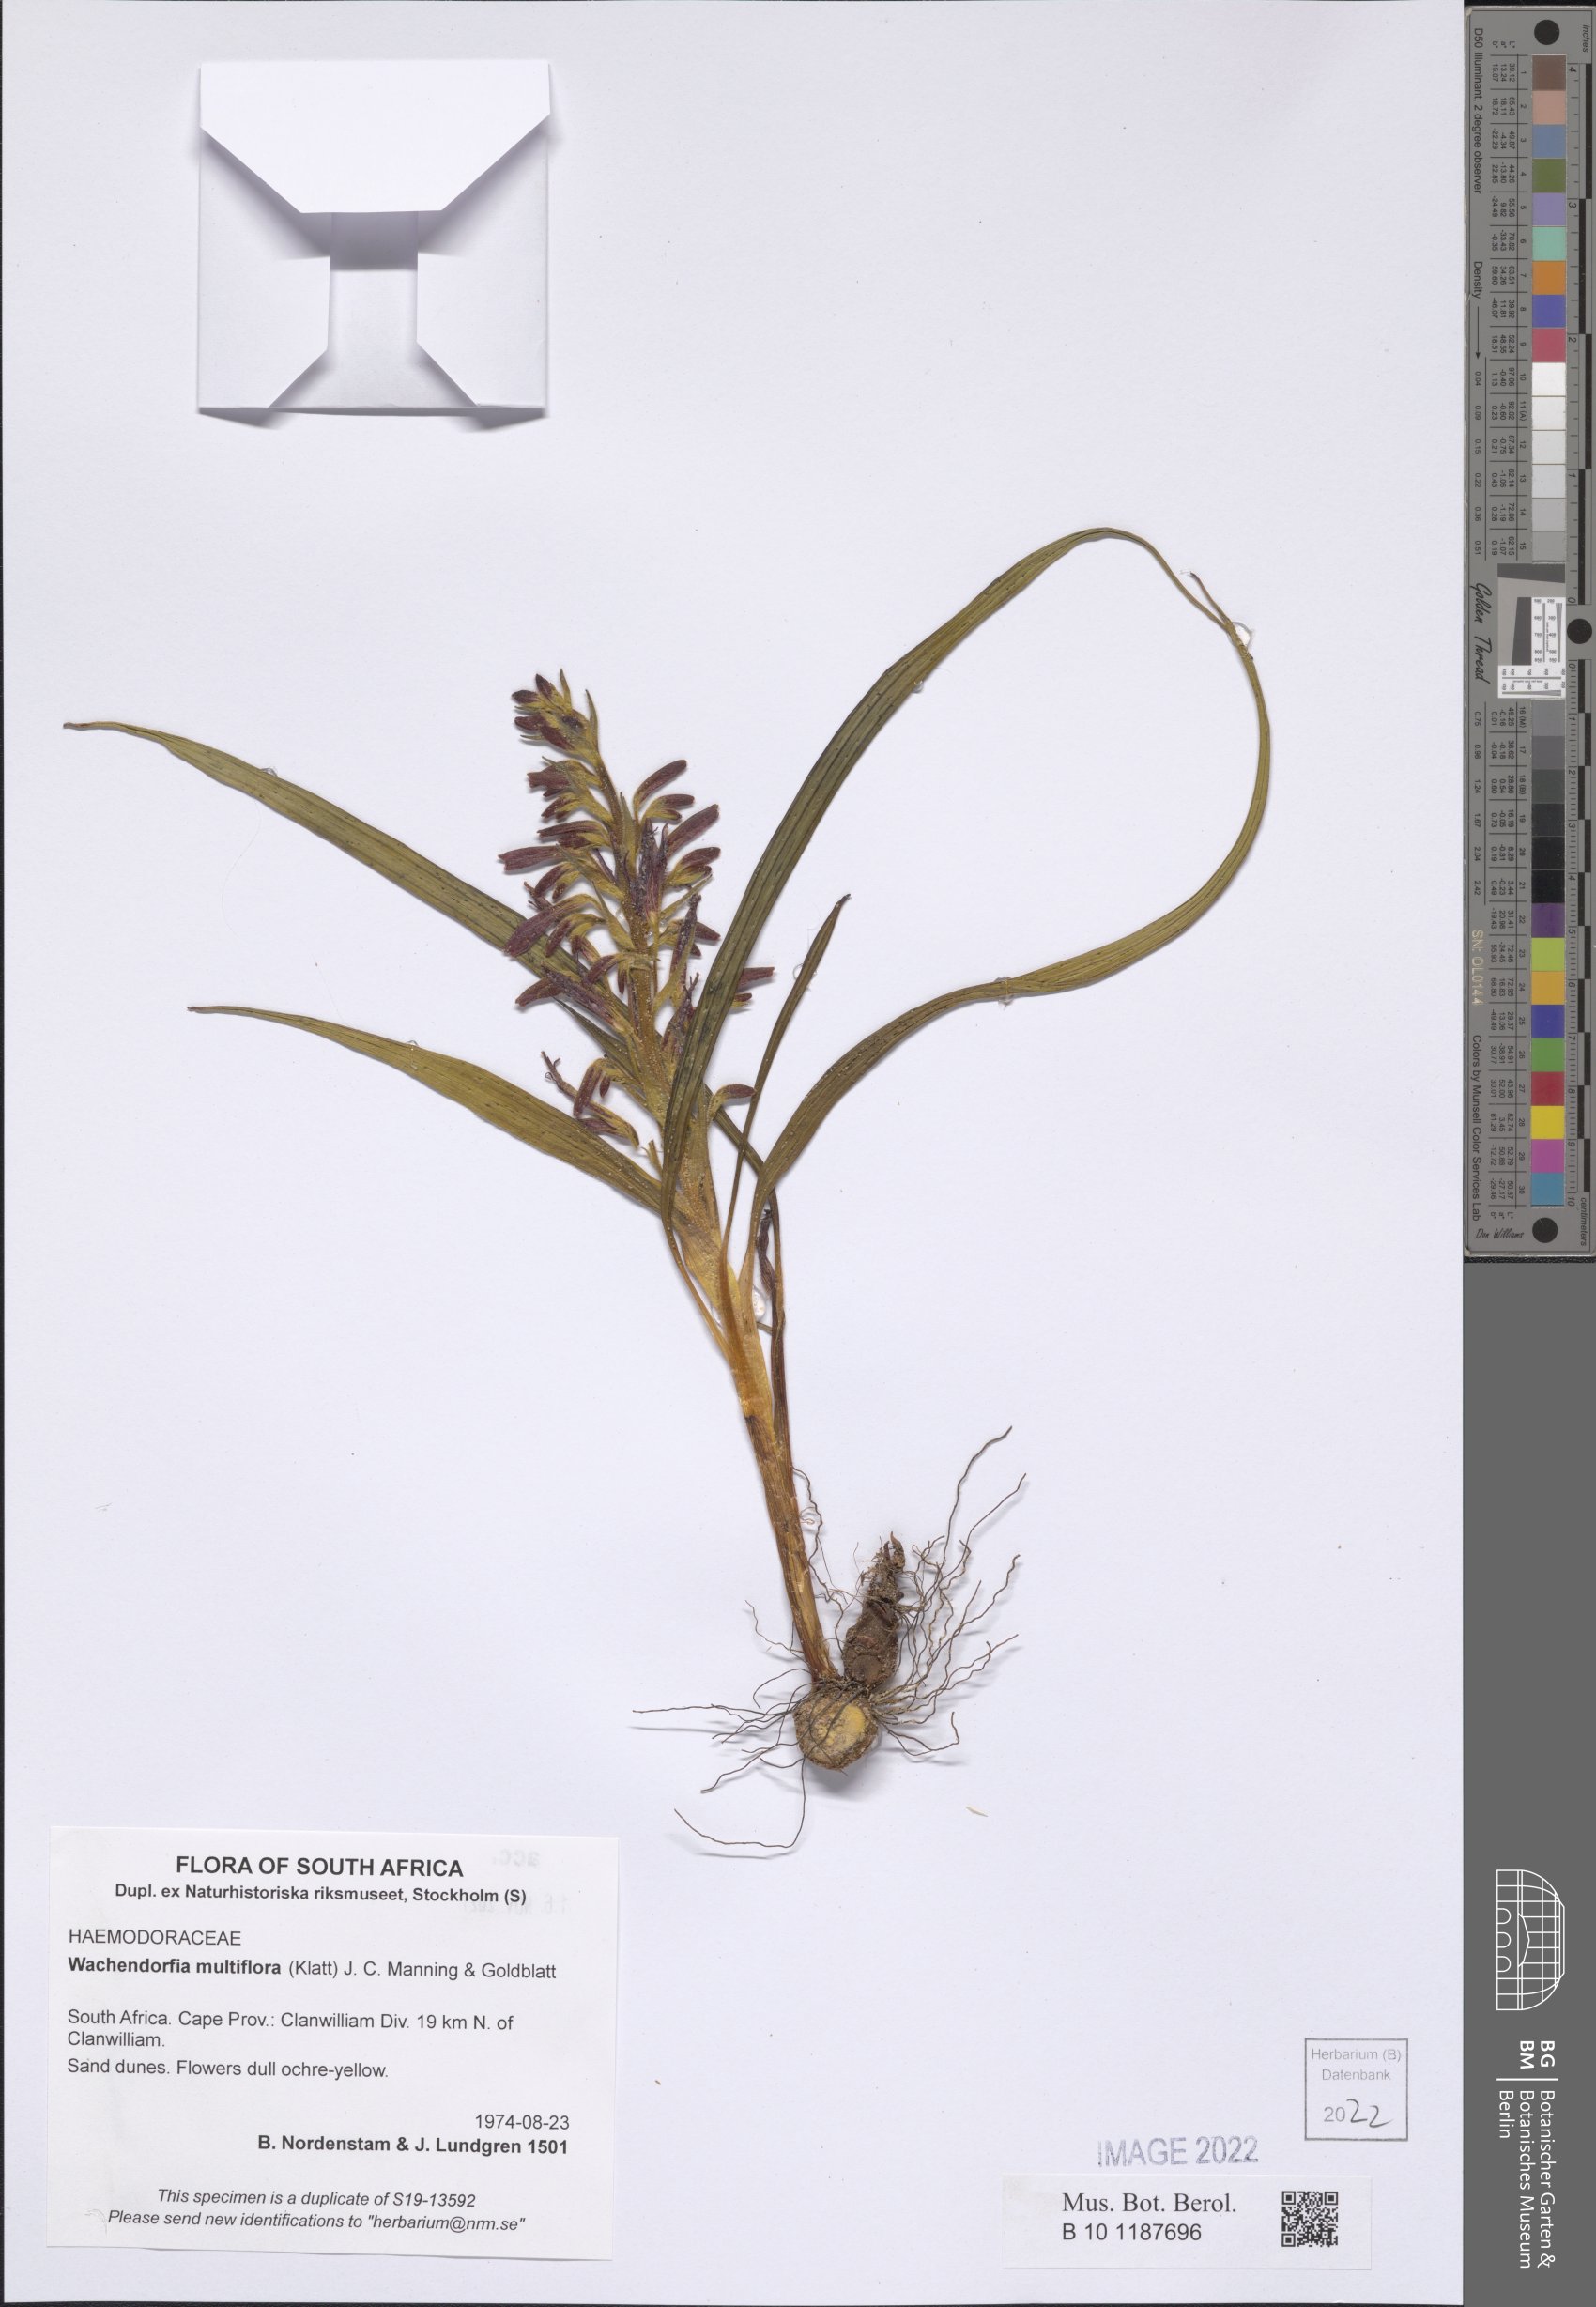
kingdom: Plantae
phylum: Tracheophyta
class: Liliopsida
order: Commelinales
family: Haemodoraceae
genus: Wachendorfia
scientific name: Wachendorfia multiflora
